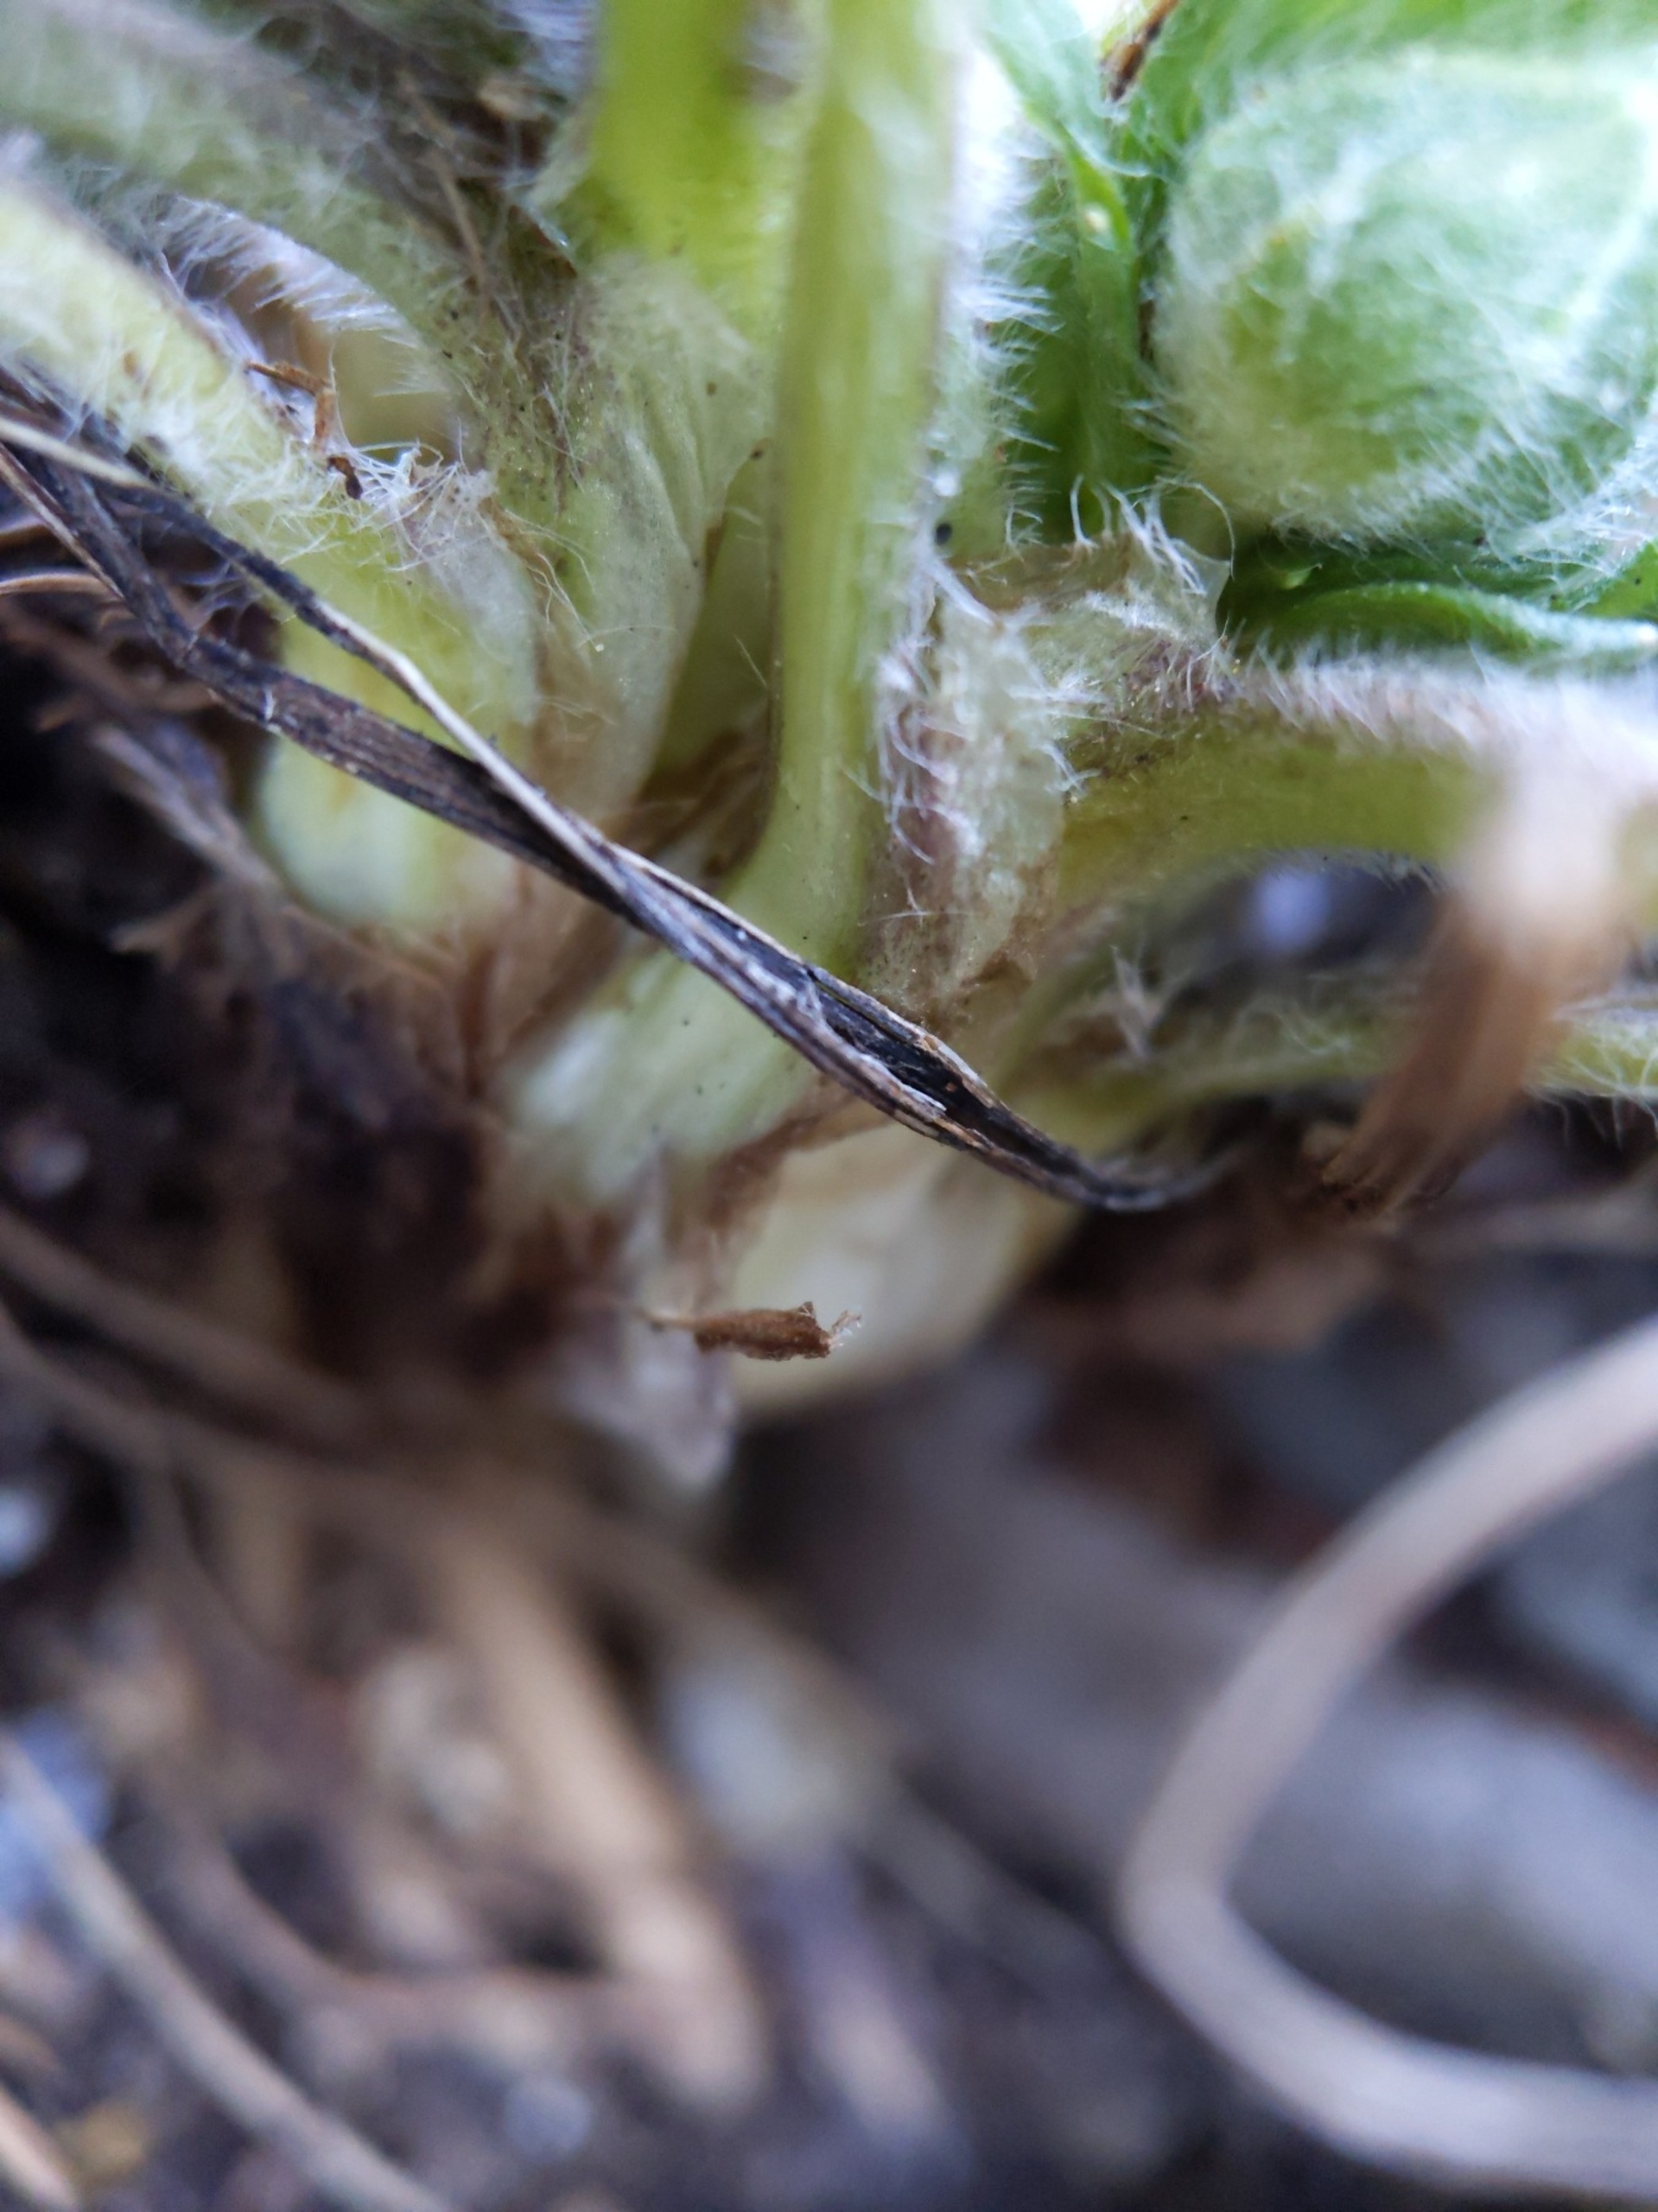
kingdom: Plantae
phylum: Tracheophyta
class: Magnoliopsida
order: Ranunculales
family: Ranunculaceae
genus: Ranunculus
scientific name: Ranunculus bulbosus
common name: Knold-ranunkel
